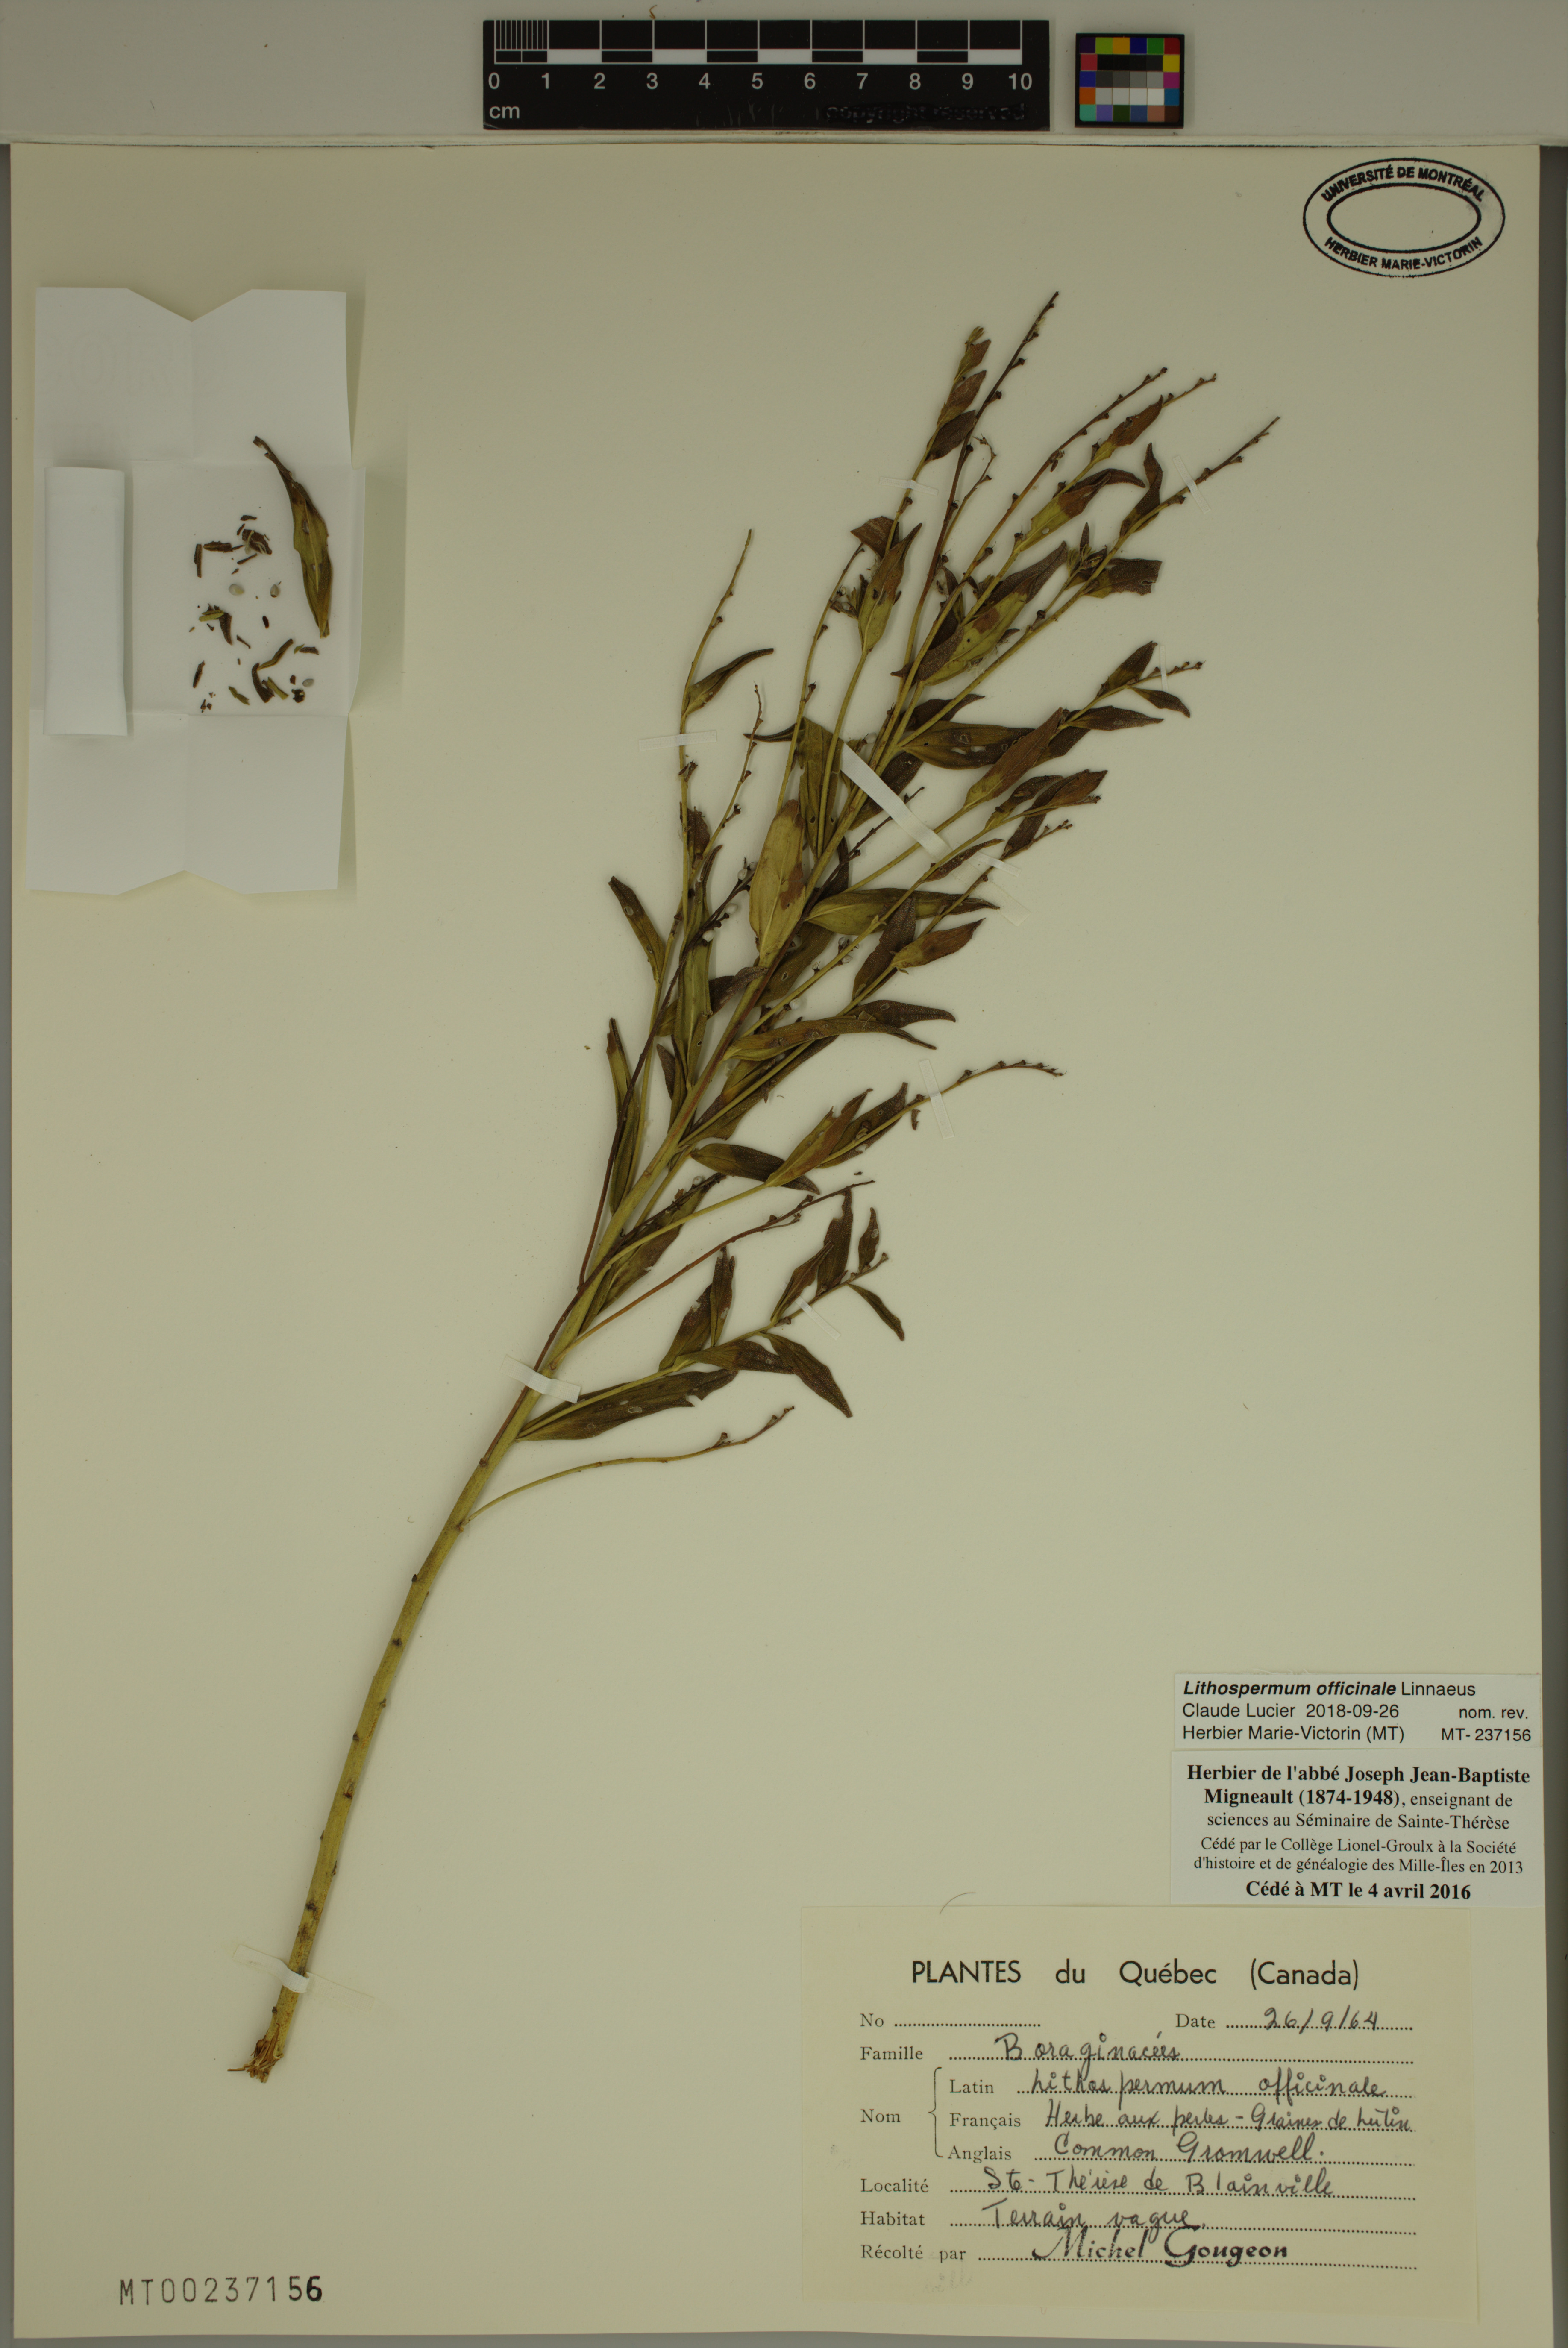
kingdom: Plantae
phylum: Tracheophyta
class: Magnoliopsida
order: Boraginales
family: Boraginaceae
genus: Lithospermum
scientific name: Lithospermum officinale
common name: Common gromwell
